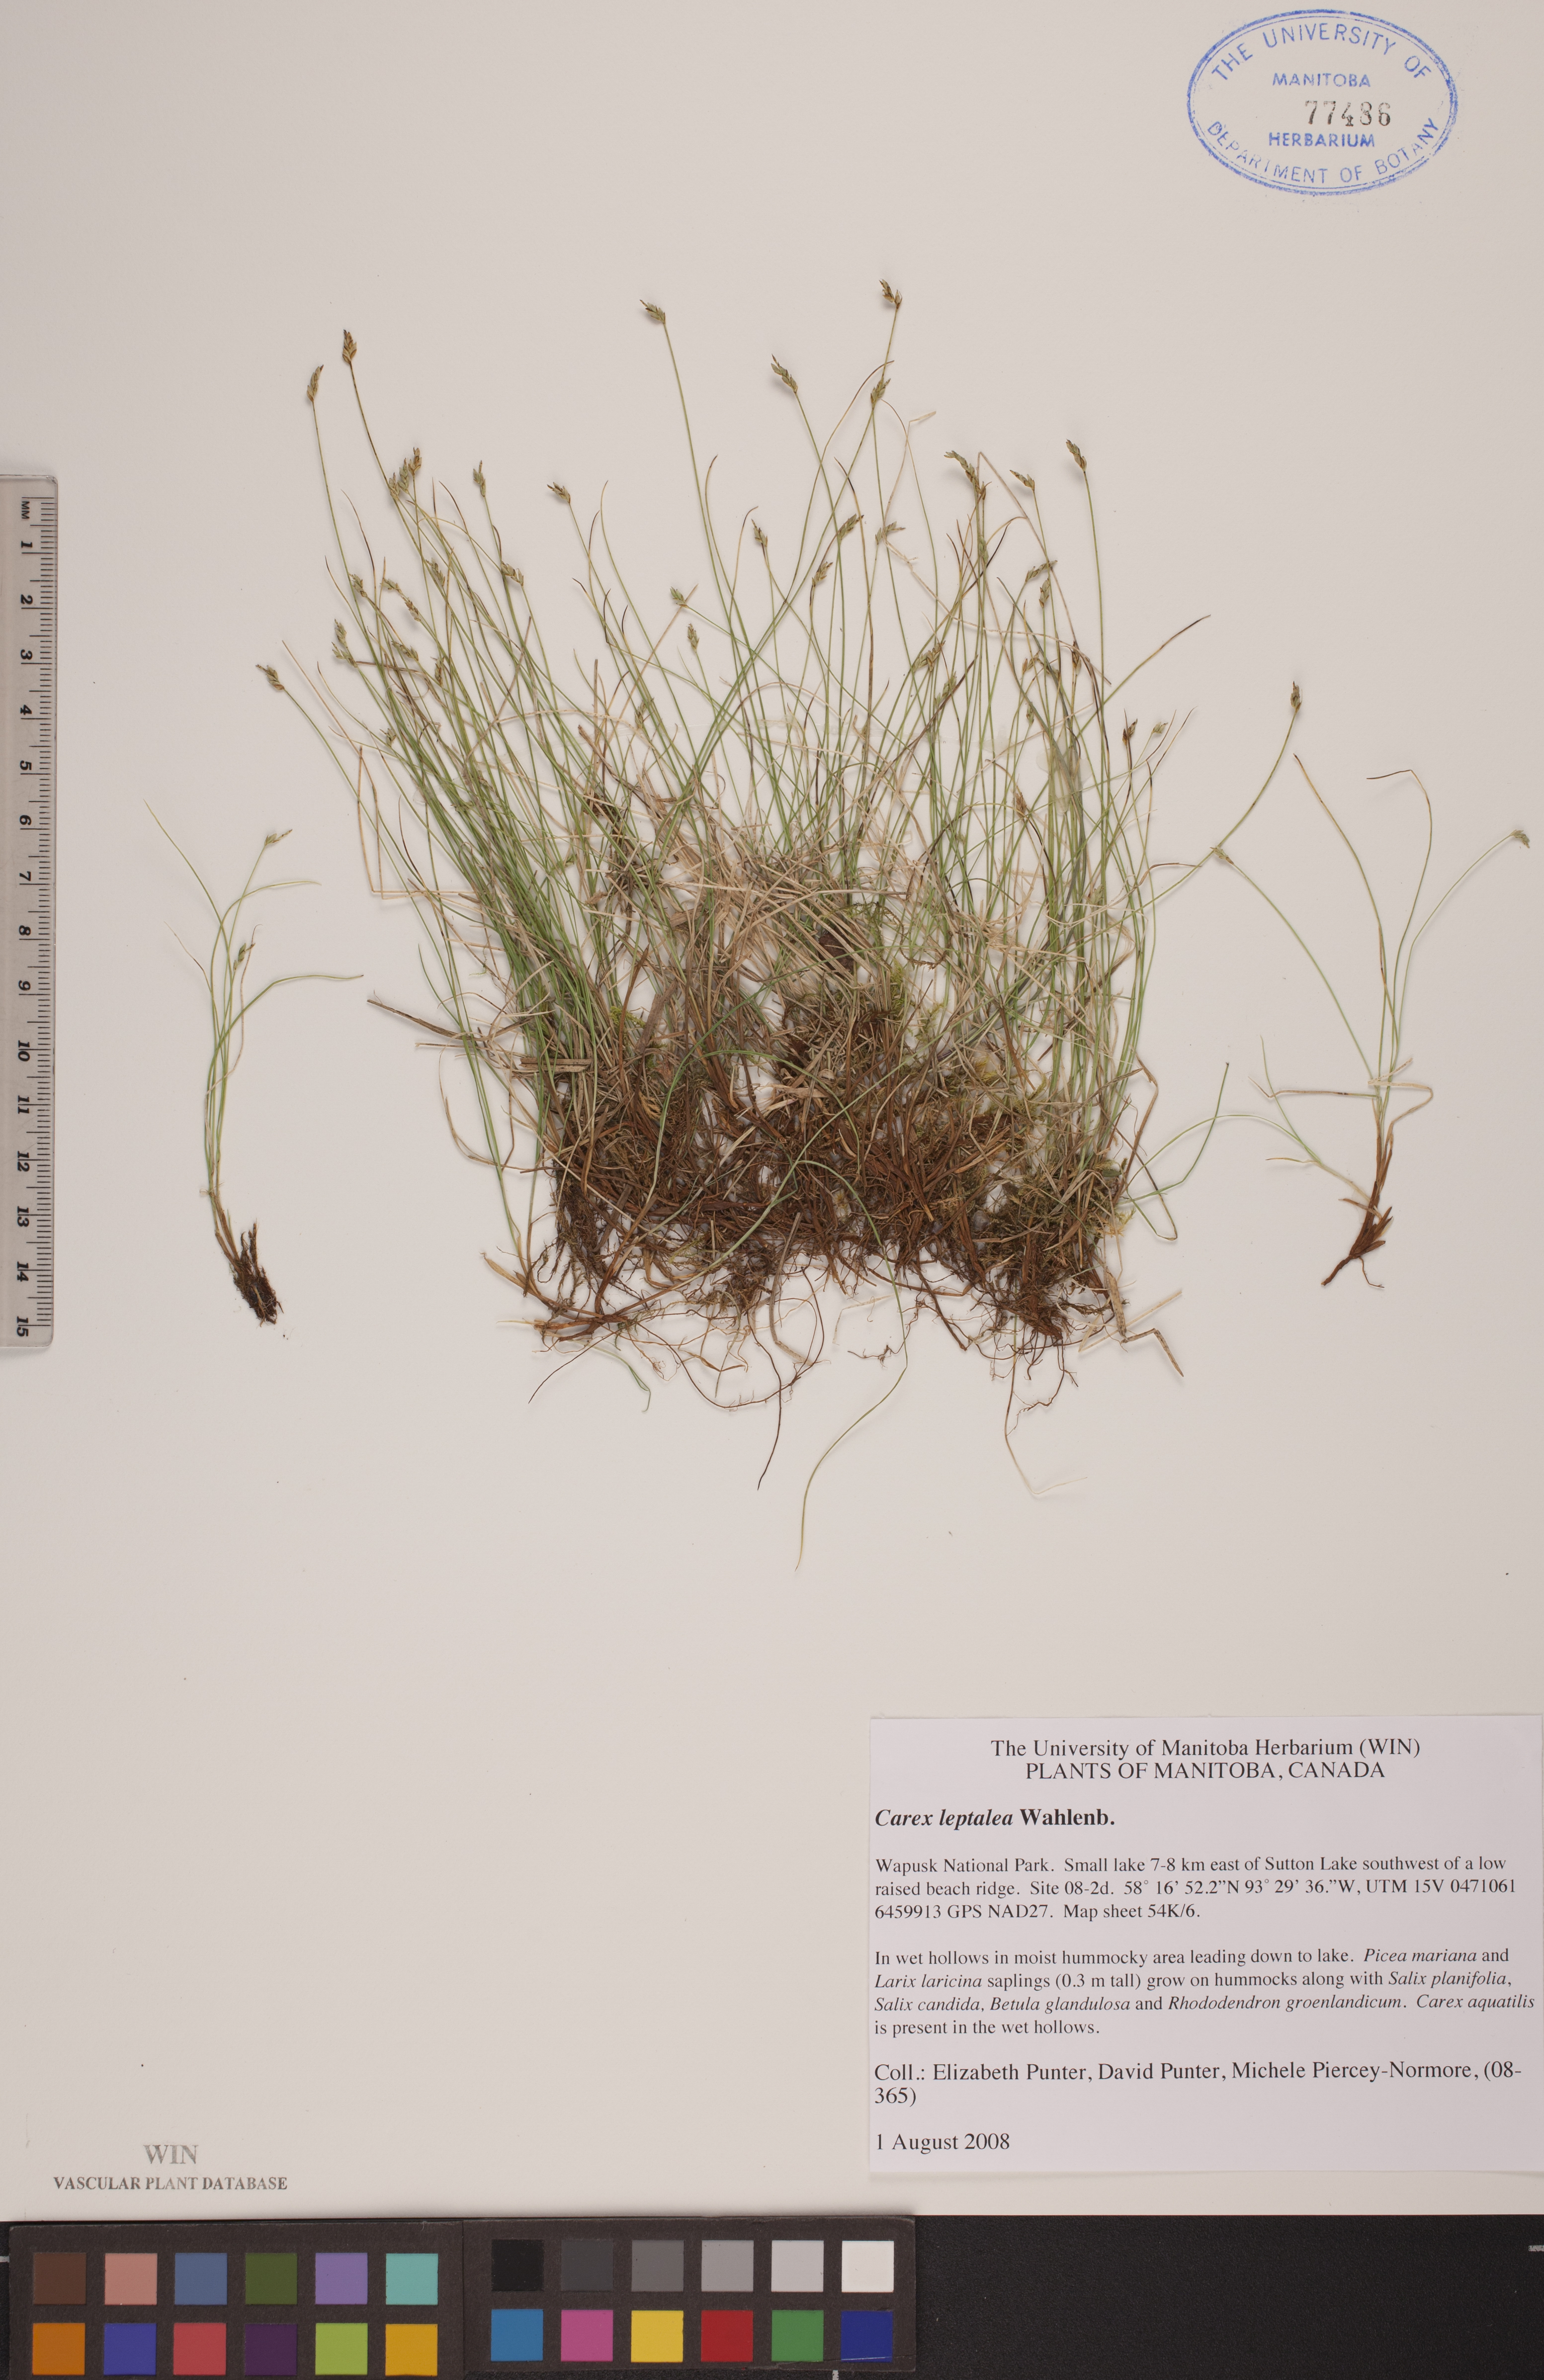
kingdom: Plantae
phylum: Tracheophyta
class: Liliopsida
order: Poales
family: Cyperaceae
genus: Carex
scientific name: Carex leptalea
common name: Bristly-stalked sedge
